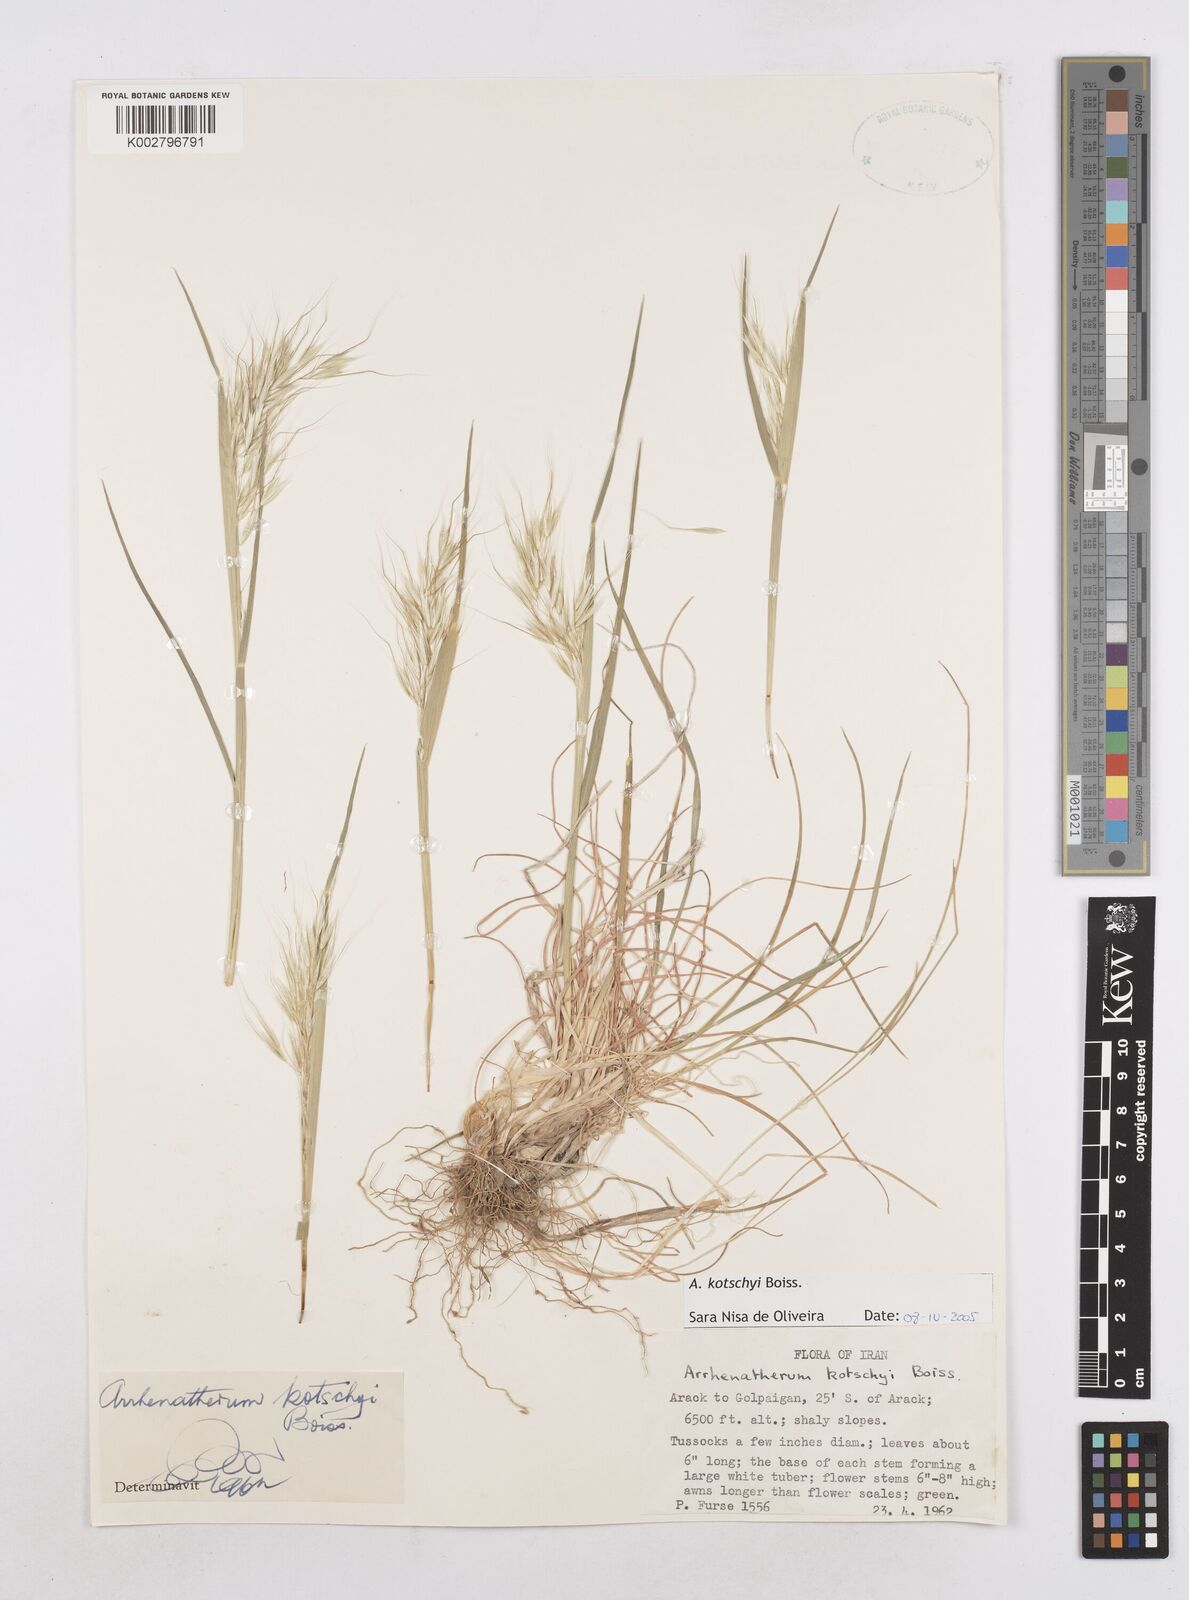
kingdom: Plantae
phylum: Tracheophyta
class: Liliopsida
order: Poales
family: Poaceae
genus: Arrhenatherum
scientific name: Arrhenatherum kotschyi
